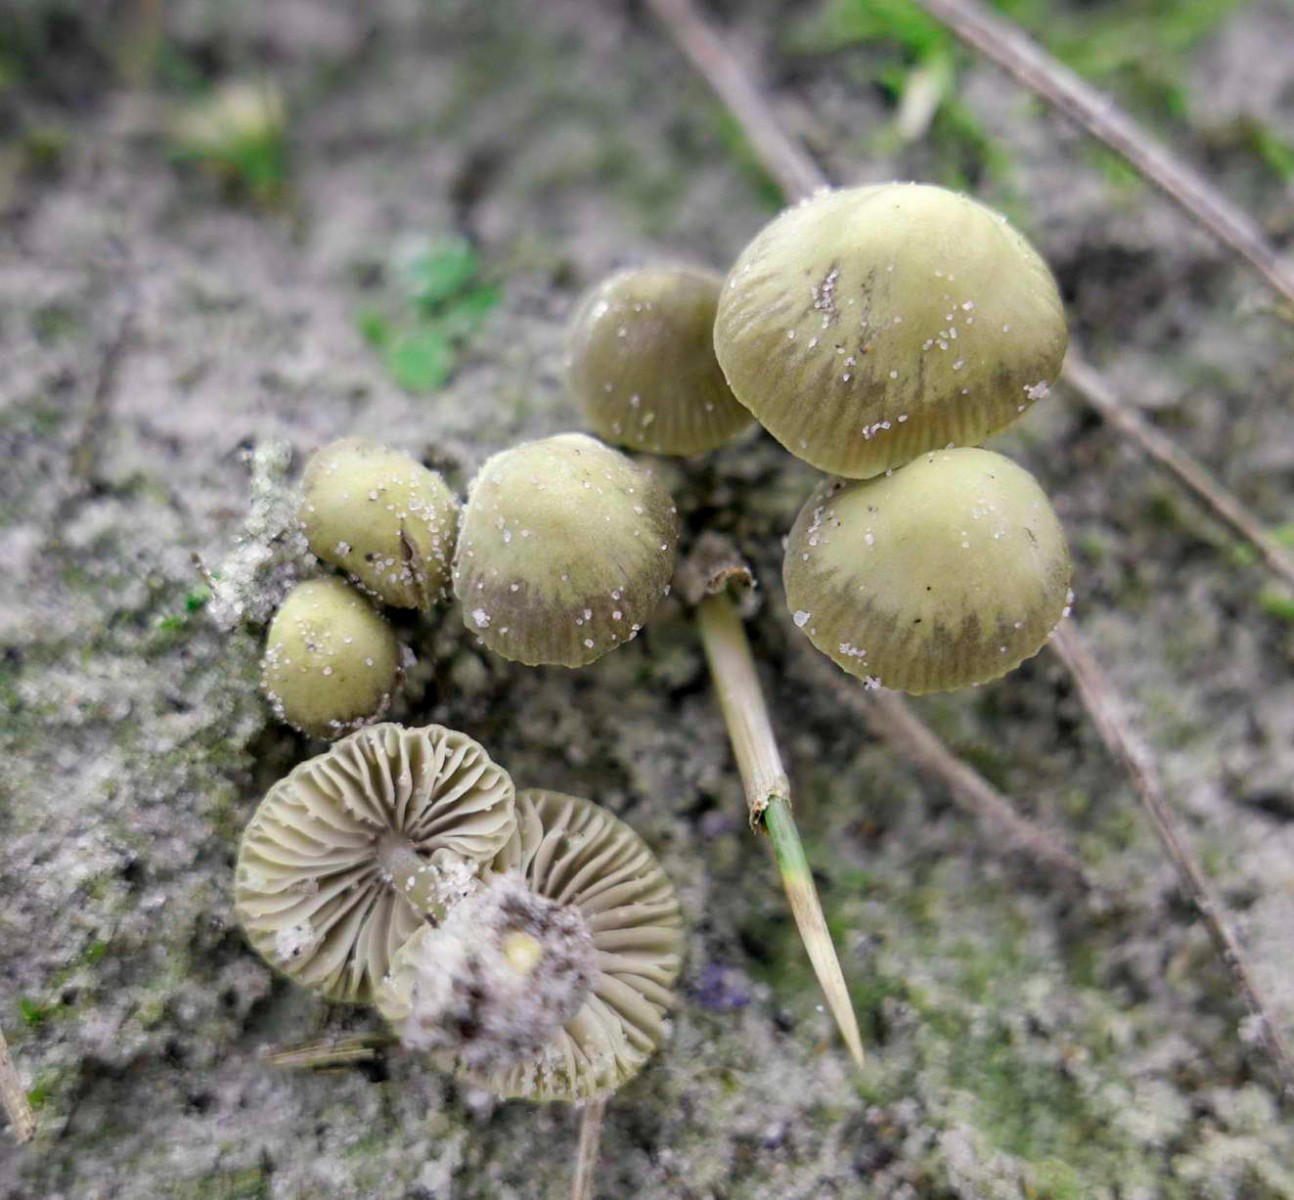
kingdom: Fungi
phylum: Basidiomycota
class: Agaricomycetes
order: Agaricales
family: Mycenaceae
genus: Mycena
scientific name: Mycena chlorantha
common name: klit-huesvamp
